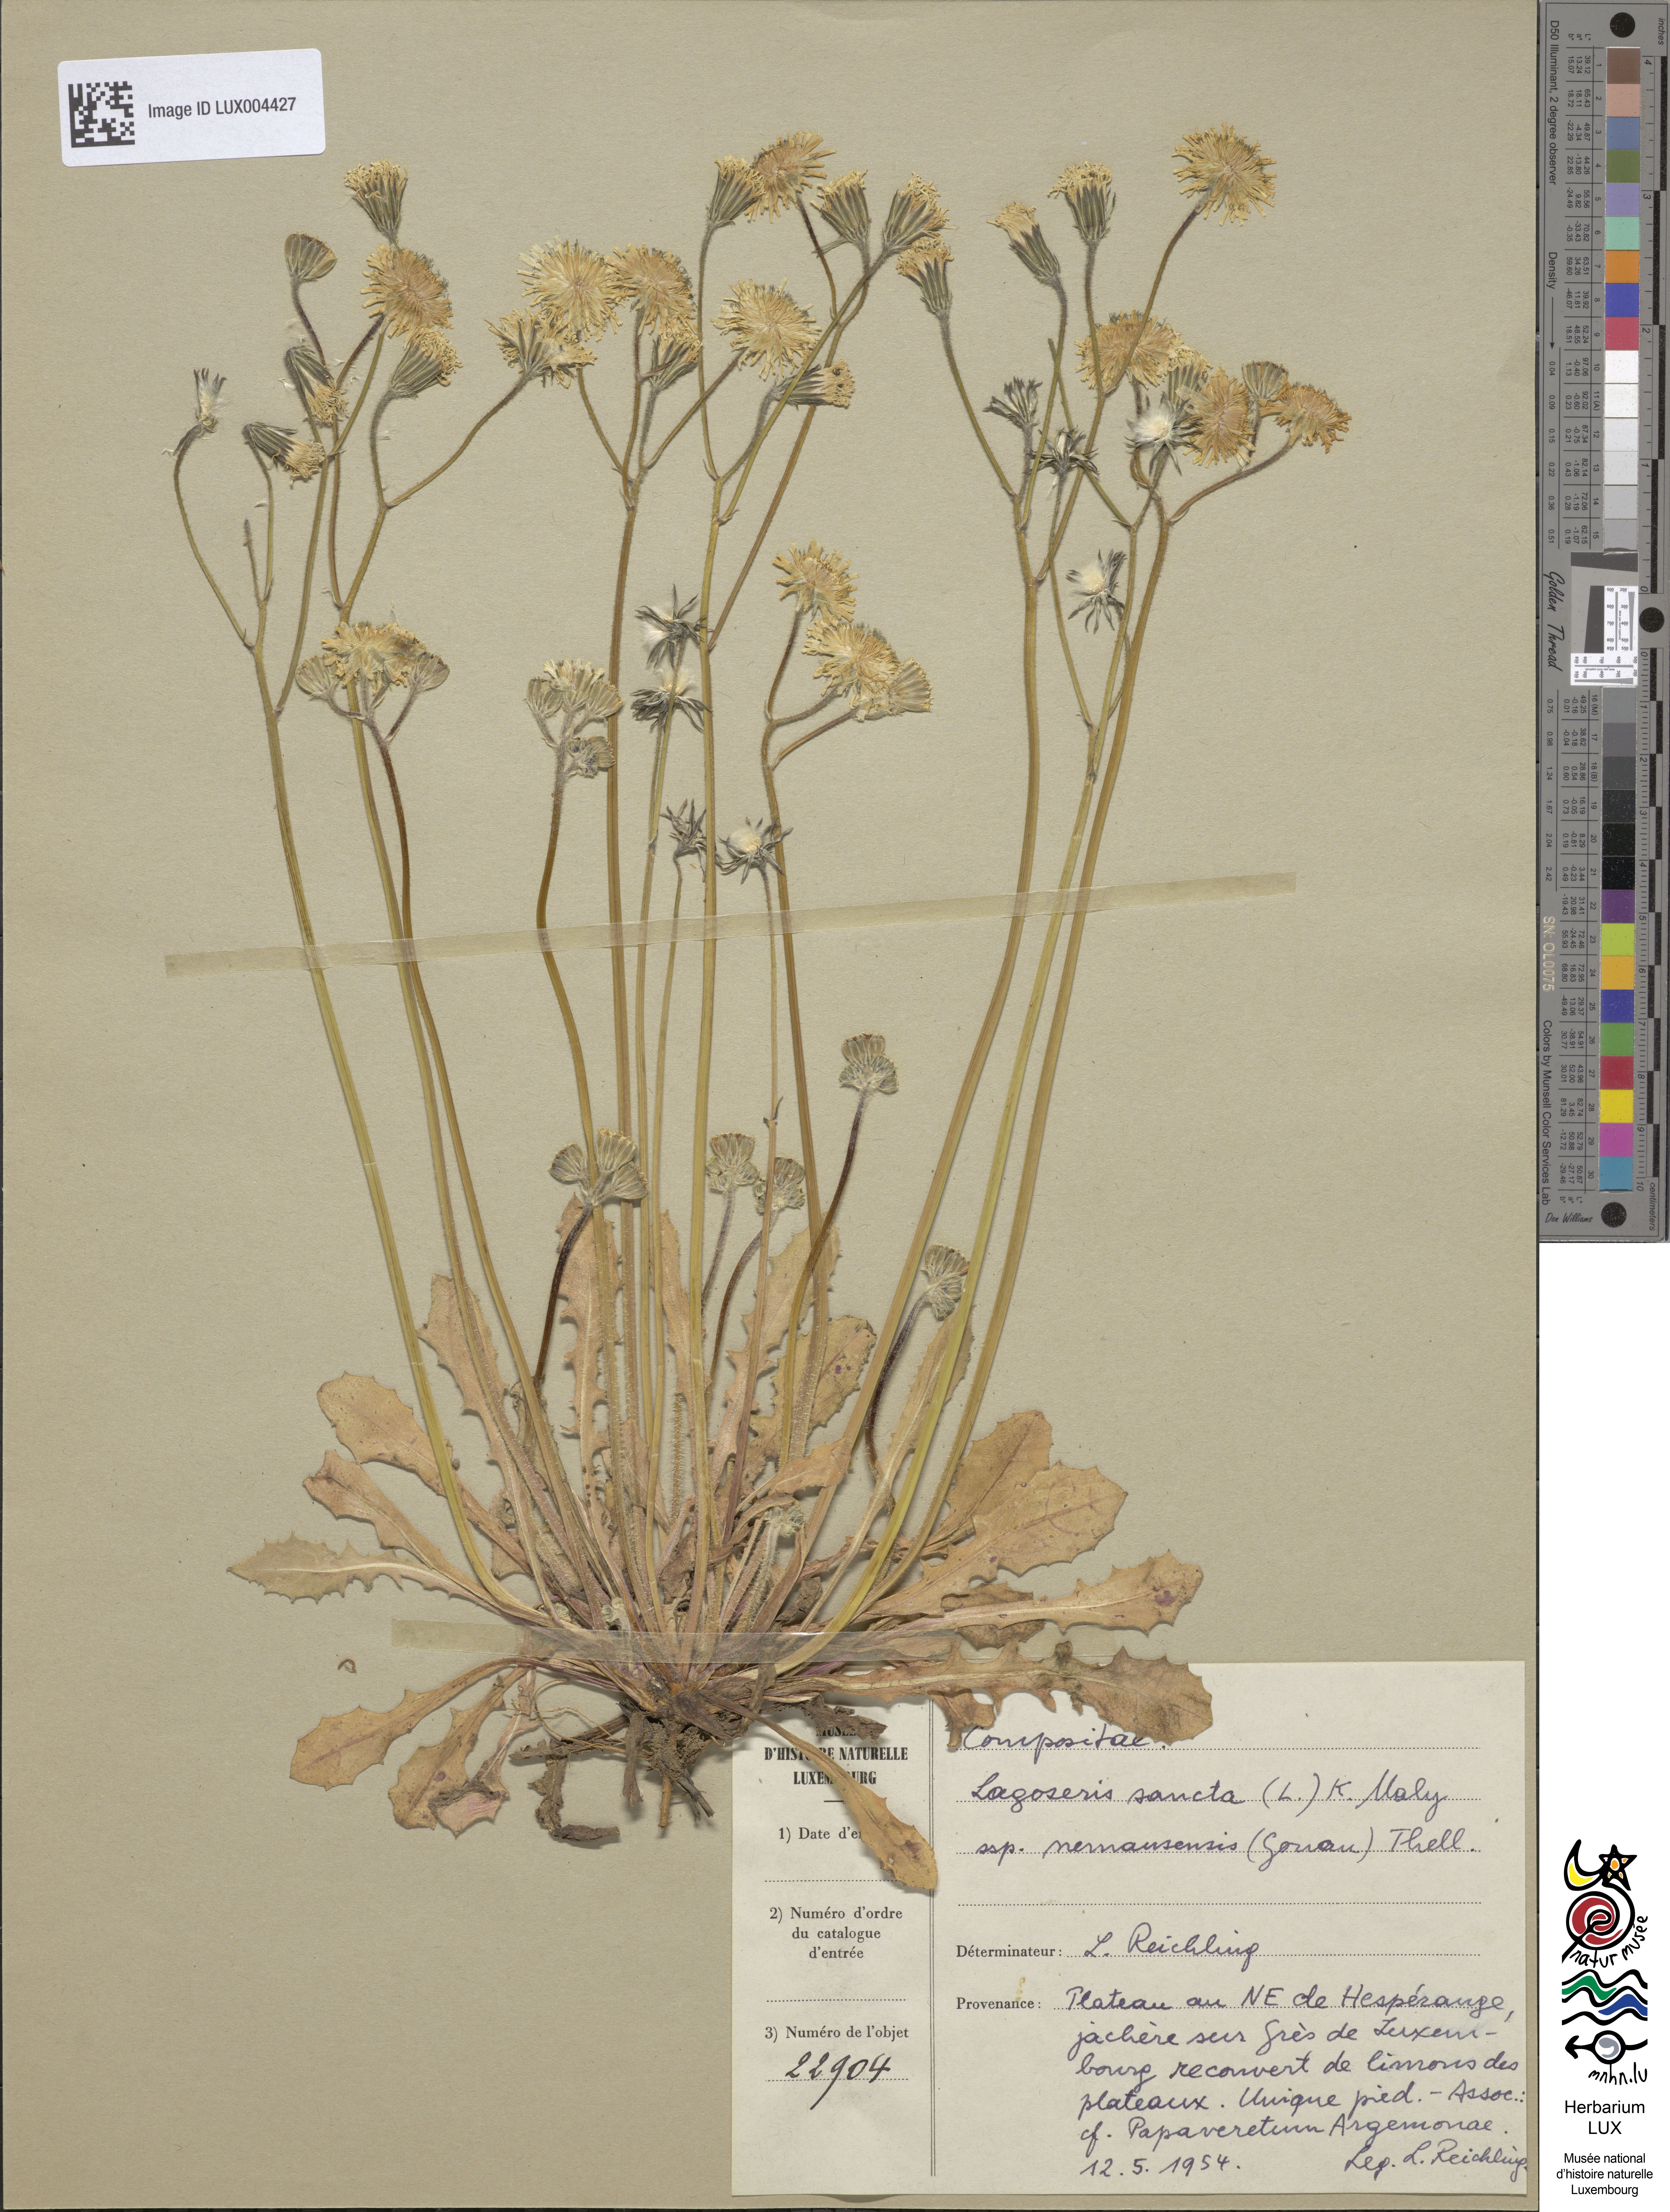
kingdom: Plantae
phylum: Tracheophyta
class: Magnoliopsida
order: Asterales
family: Asteraceae
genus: Crepis
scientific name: Crepis sancta
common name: Hawk's-beard
